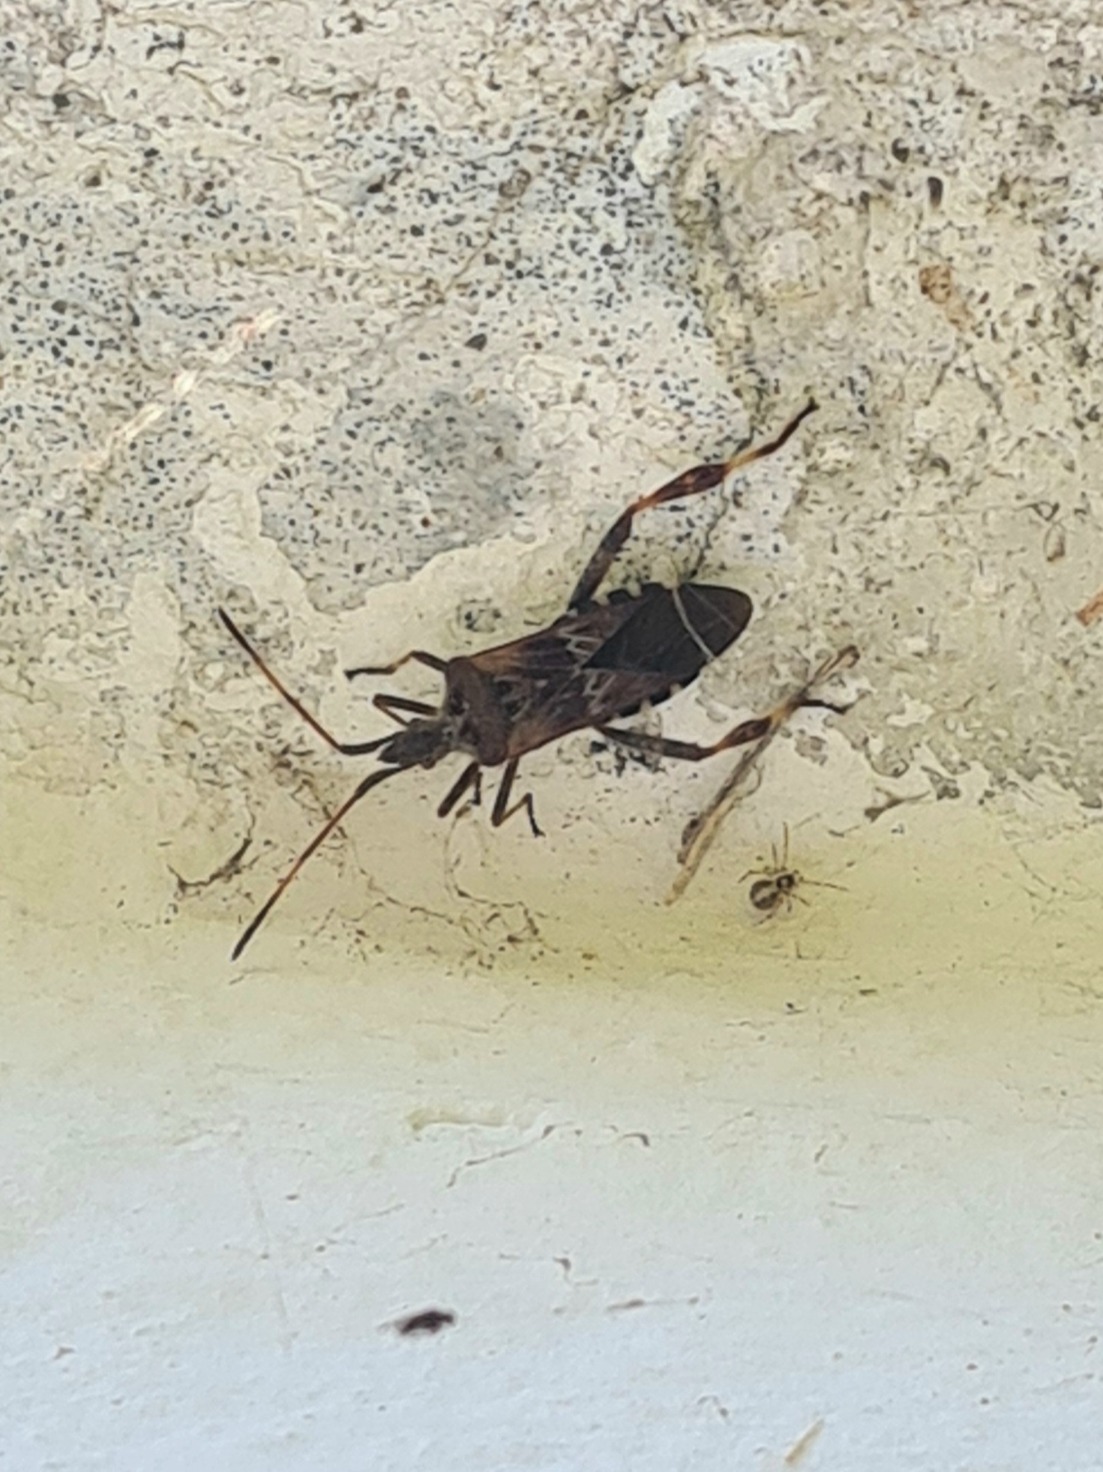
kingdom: Animalia
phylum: Arthropoda
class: Insecta
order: Hemiptera
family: Coreidae
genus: Leptoglossus
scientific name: Leptoglossus occidentalis
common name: Amerikansk fyrretæge
